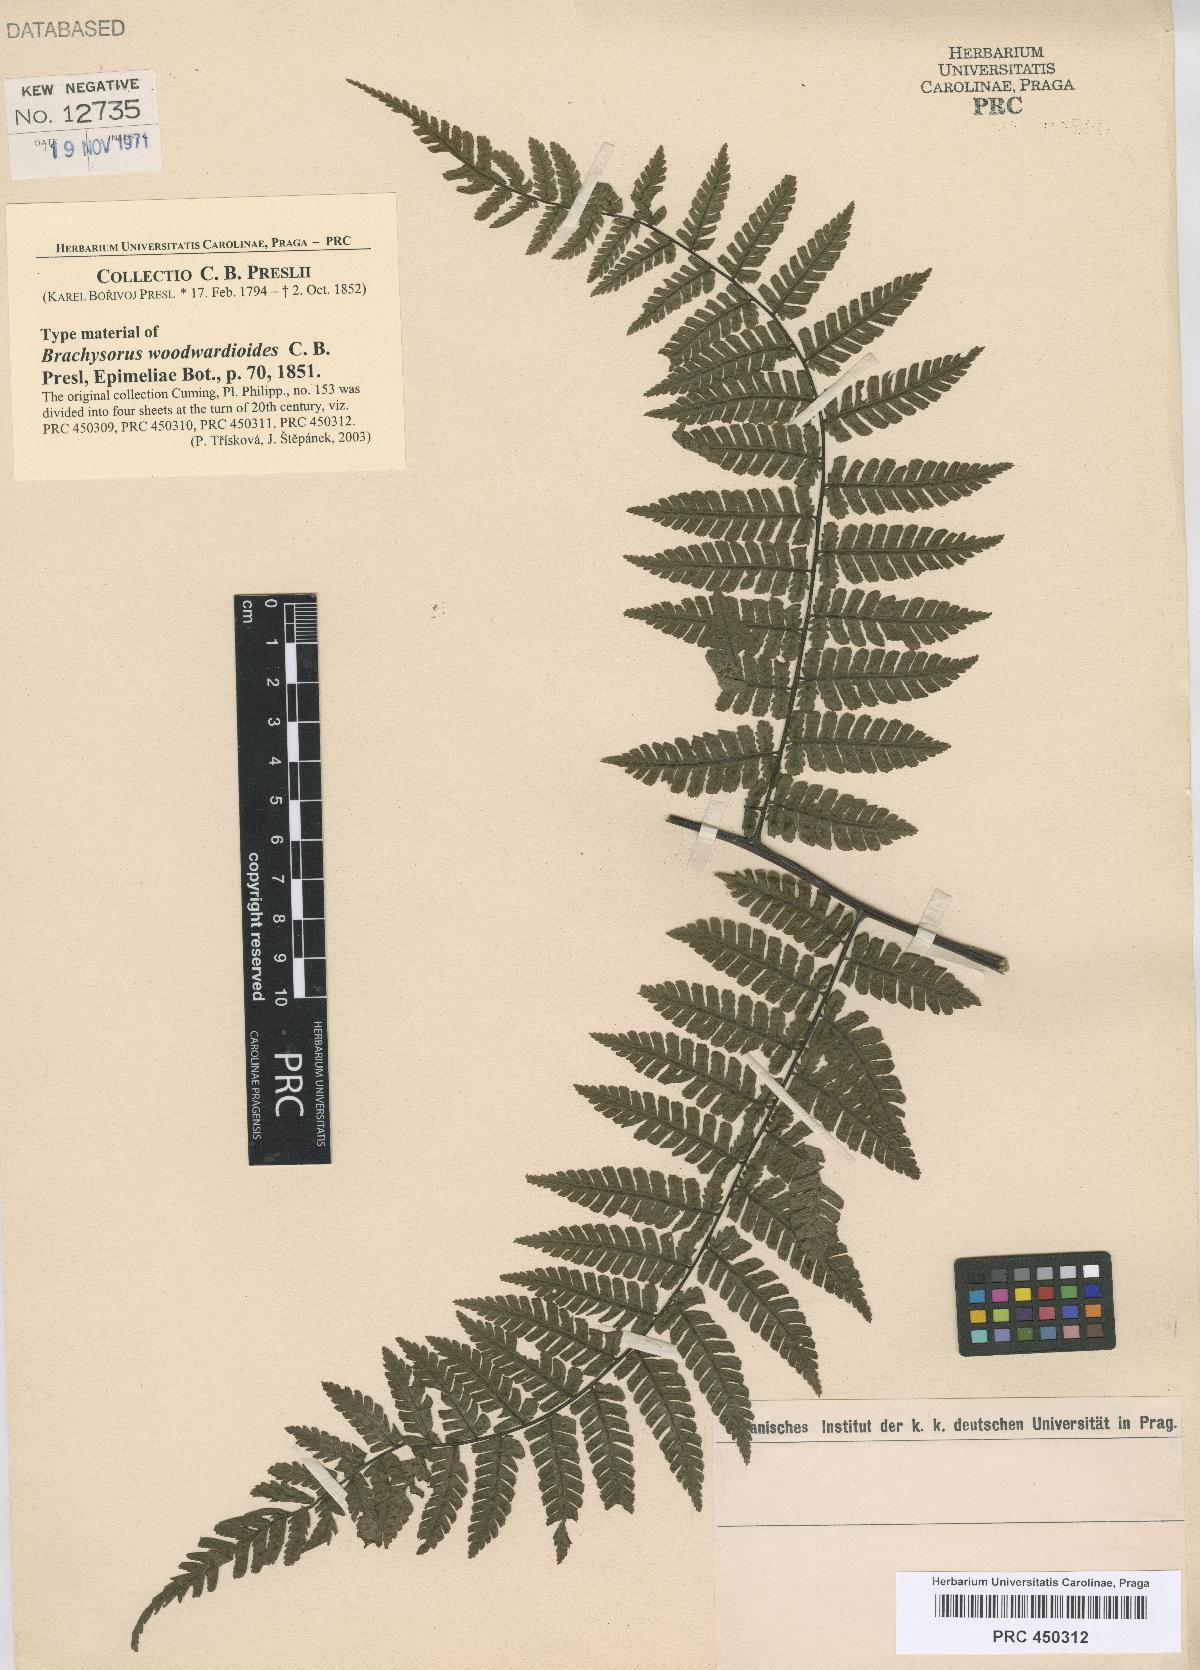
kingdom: Plantae
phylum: Tracheophyta
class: Polypodiopsida
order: Polypodiales
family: Athyriaceae
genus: Diplazium
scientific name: Diplazium woodwardioides
